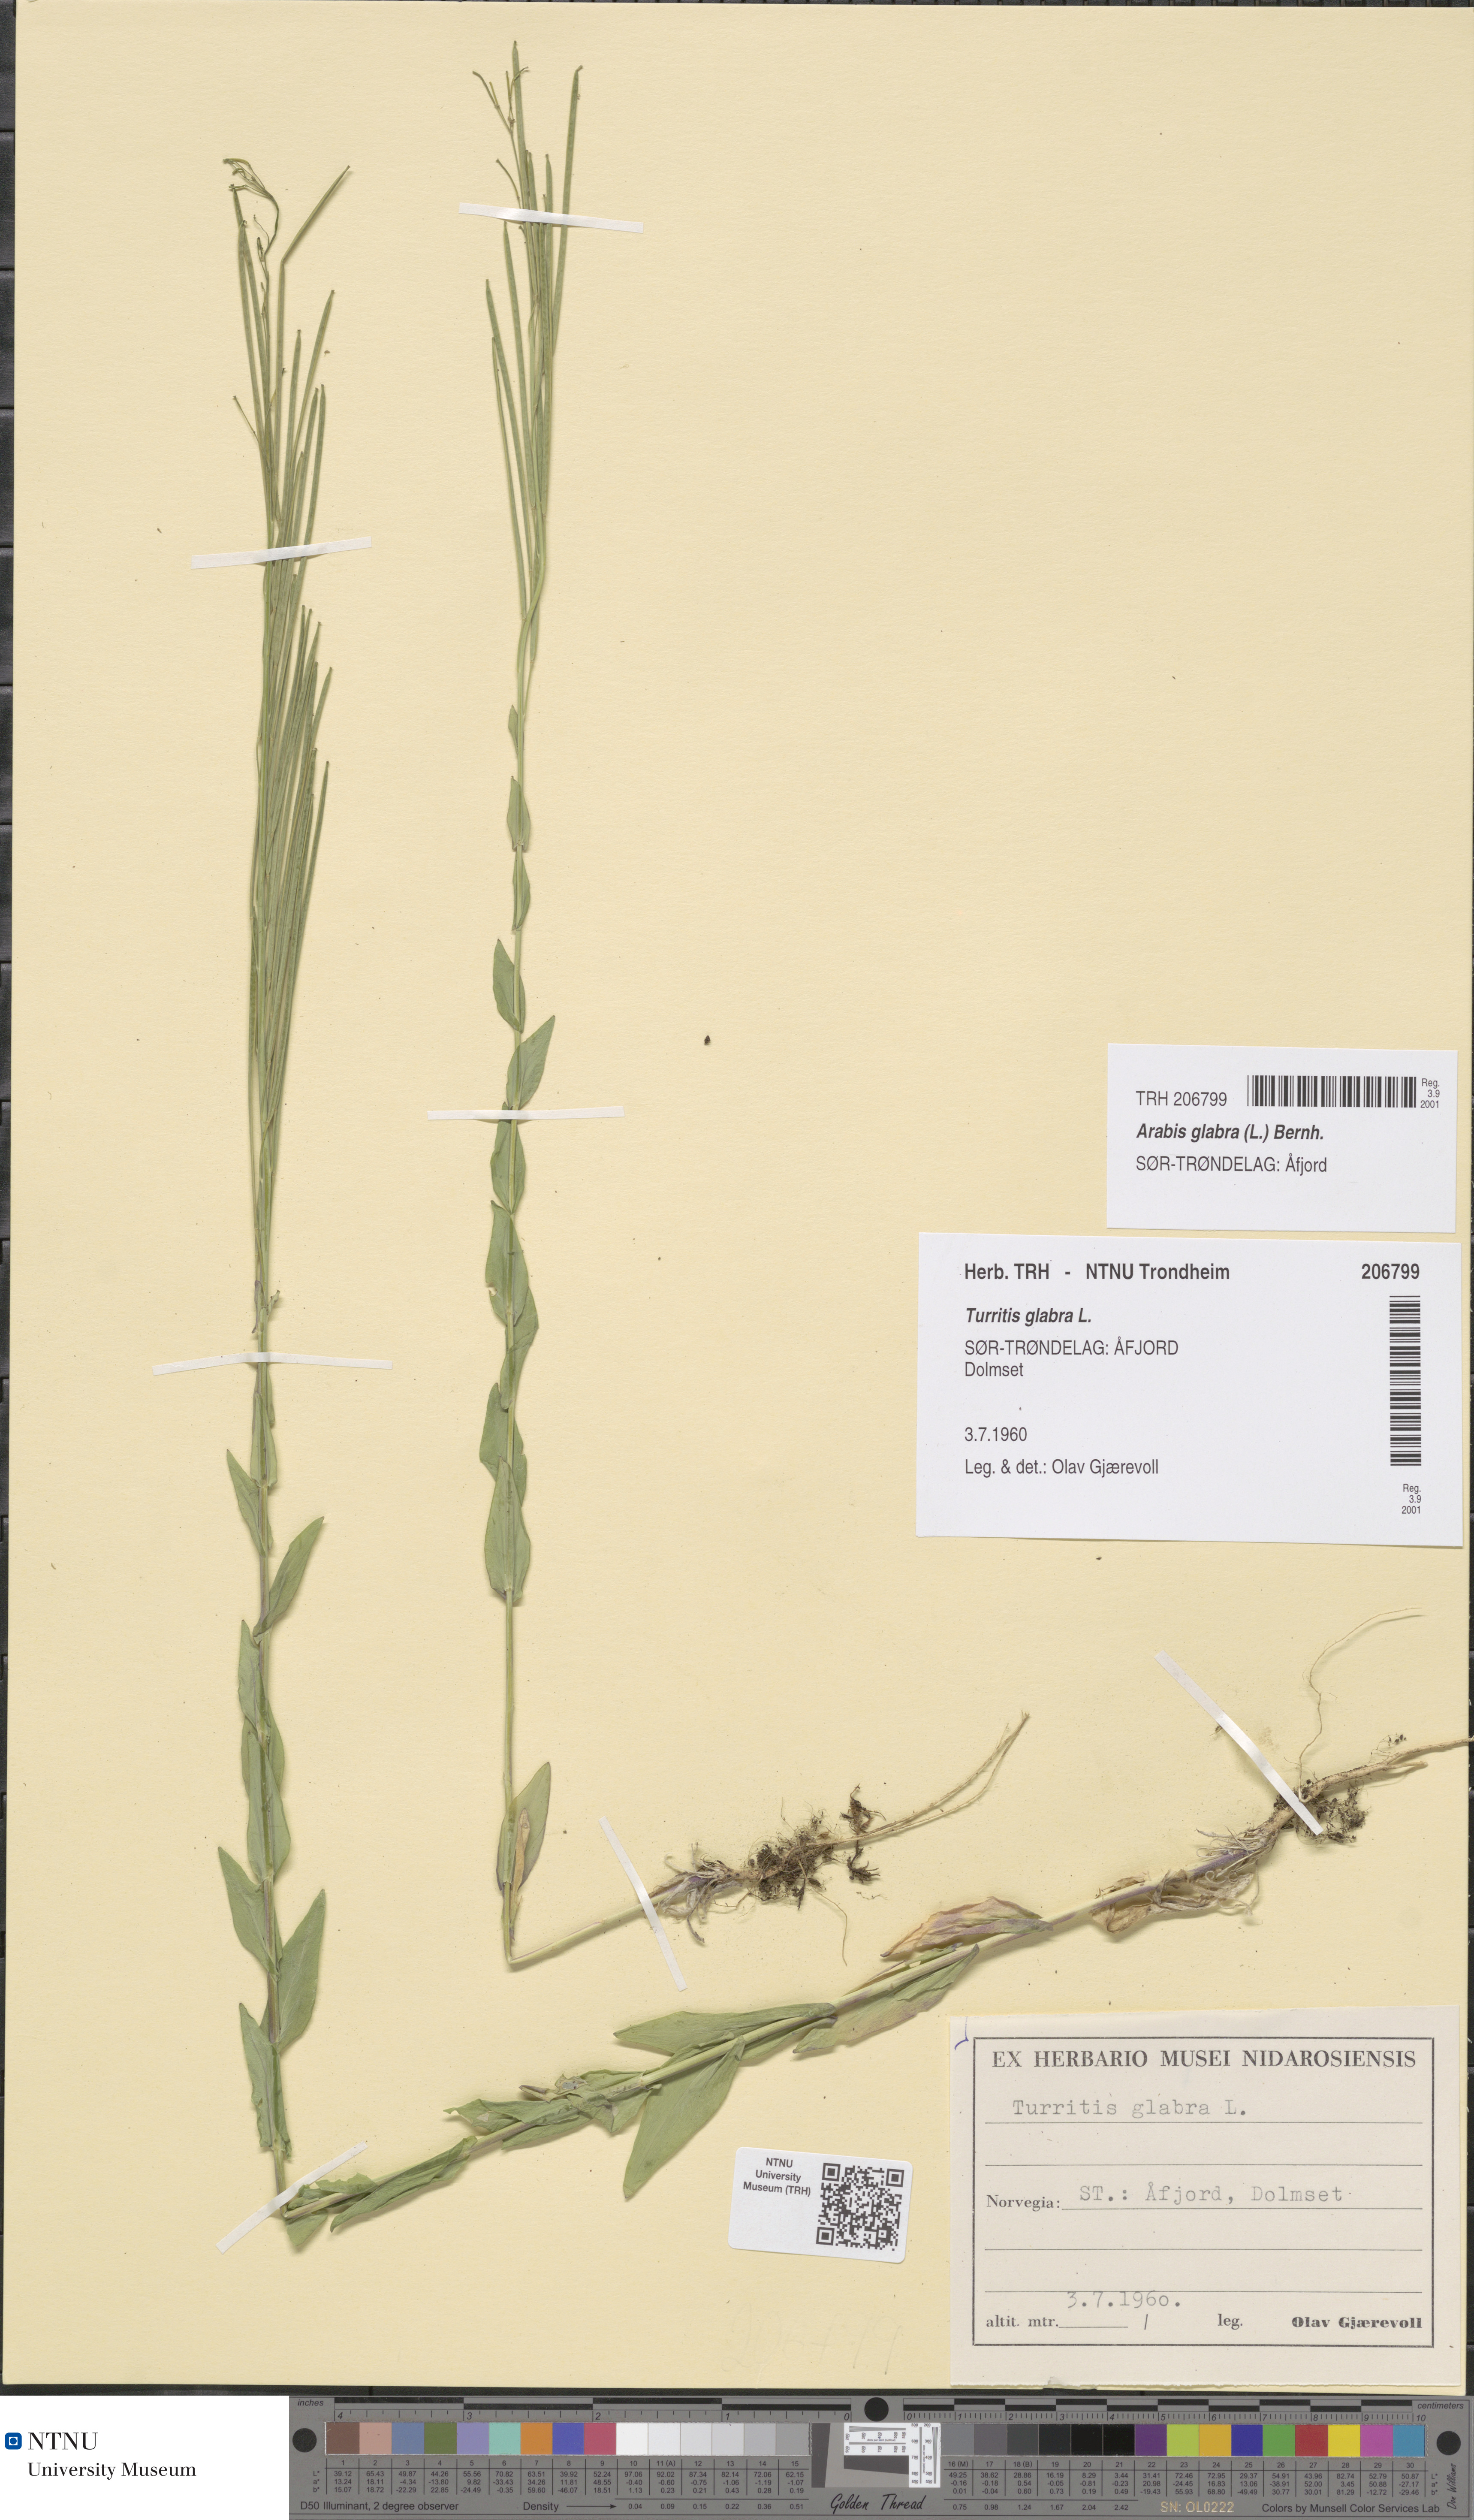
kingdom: Plantae
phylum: Tracheophyta
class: Magnoliopsida
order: Brassicales
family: Brassicaceae
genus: Turritis
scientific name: Turritis glabra
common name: Tower rockcress
